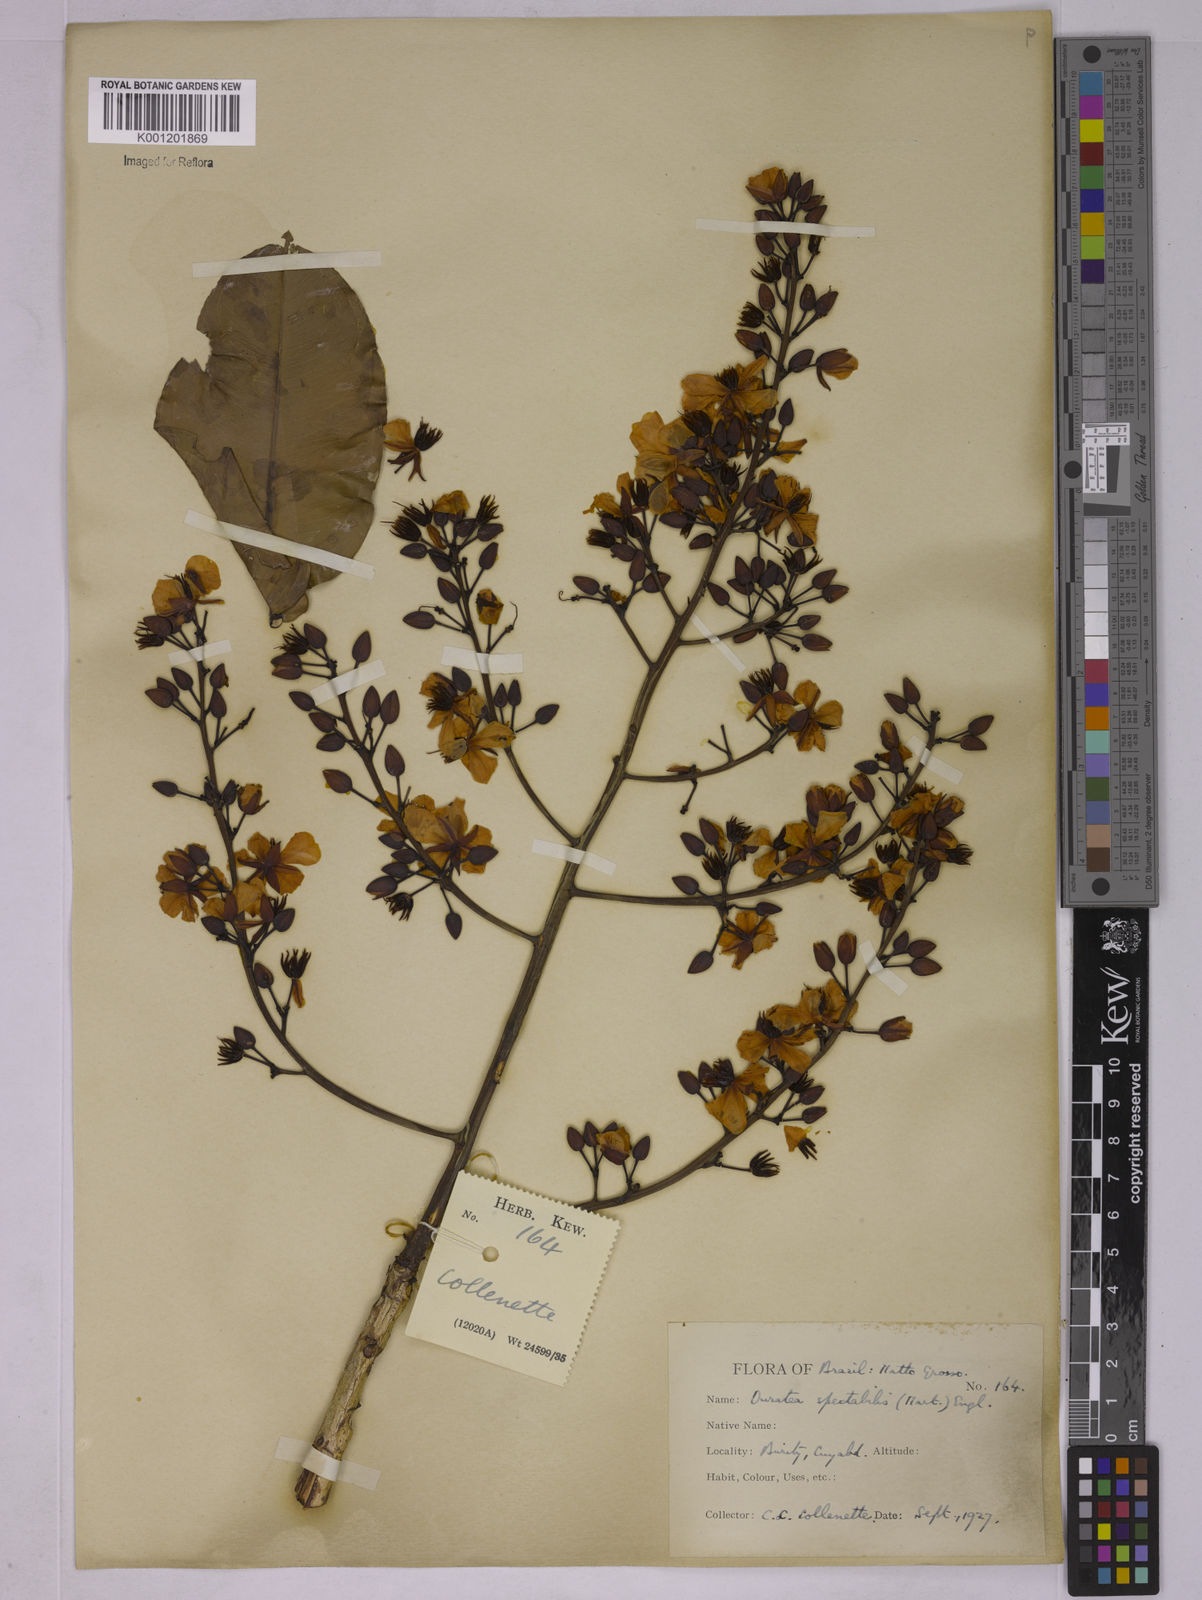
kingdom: Plantae
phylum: Tracheophyta
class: Magnoliopsida
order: Malpighiales
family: Ochnaceae
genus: Ouratea
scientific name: Ouratea spectabilis
